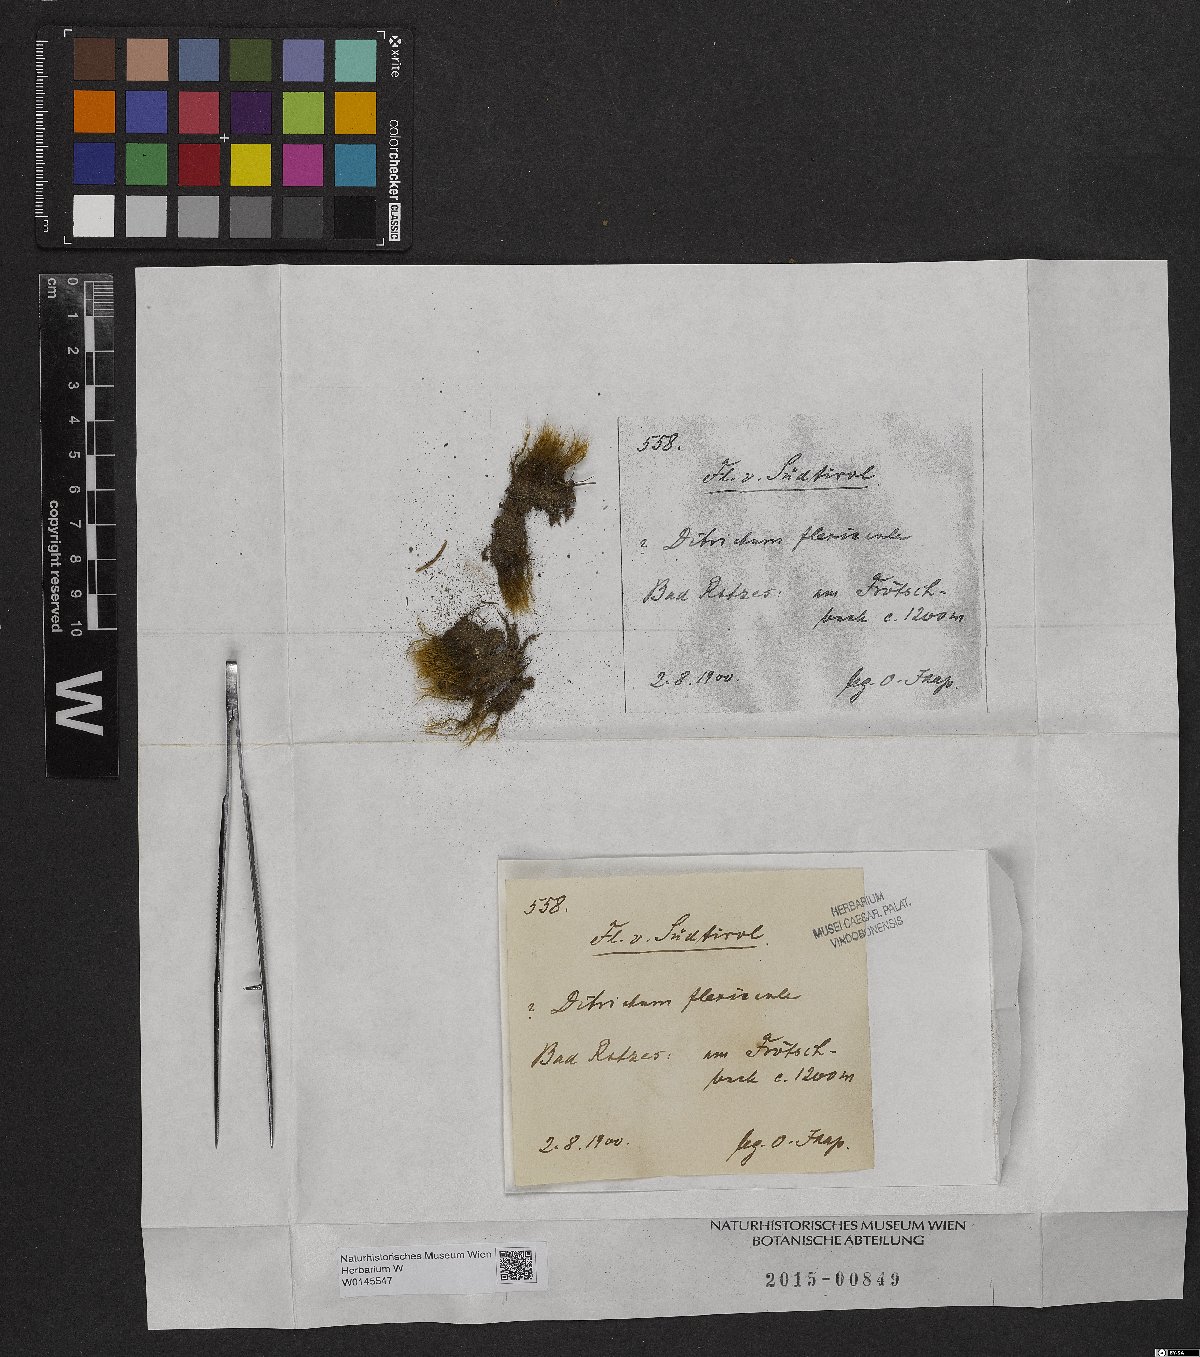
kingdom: Plantae
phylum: Bryophyta
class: Bryopsida
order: Scouleriales
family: Flexitrichaceae
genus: Flexitrichum
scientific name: Flexitrichum flexicaule
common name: Bendy ditrichum
